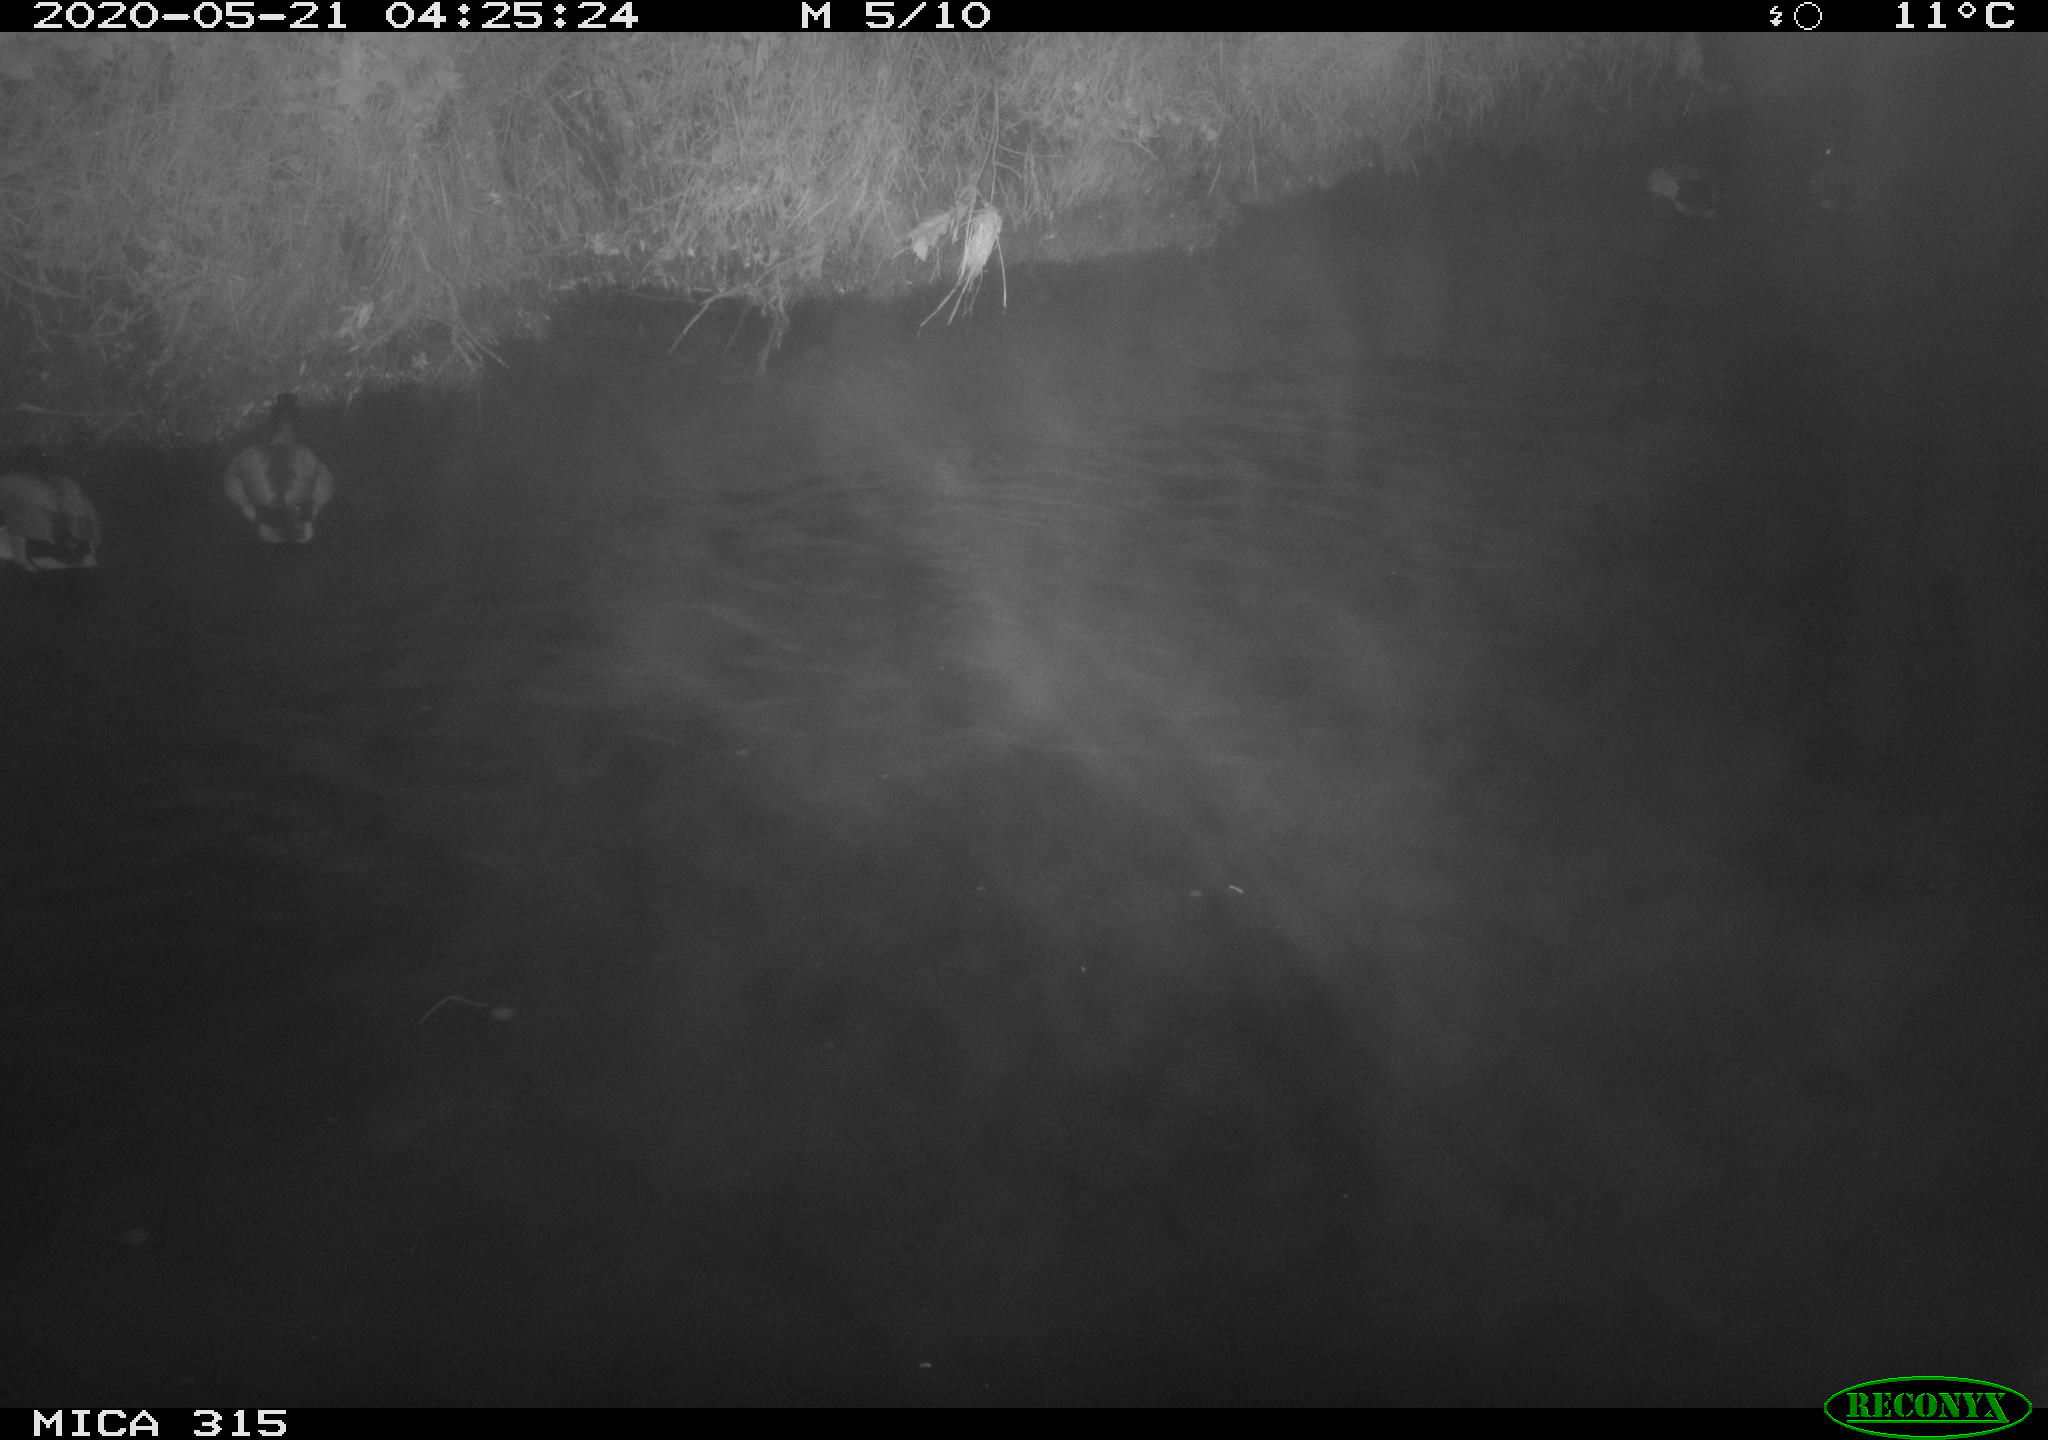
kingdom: Animalia
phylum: Chordata
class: Aves
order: Anseriformes
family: Anatidae
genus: Anas
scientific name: Anas platyrhynchos
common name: Mallard
